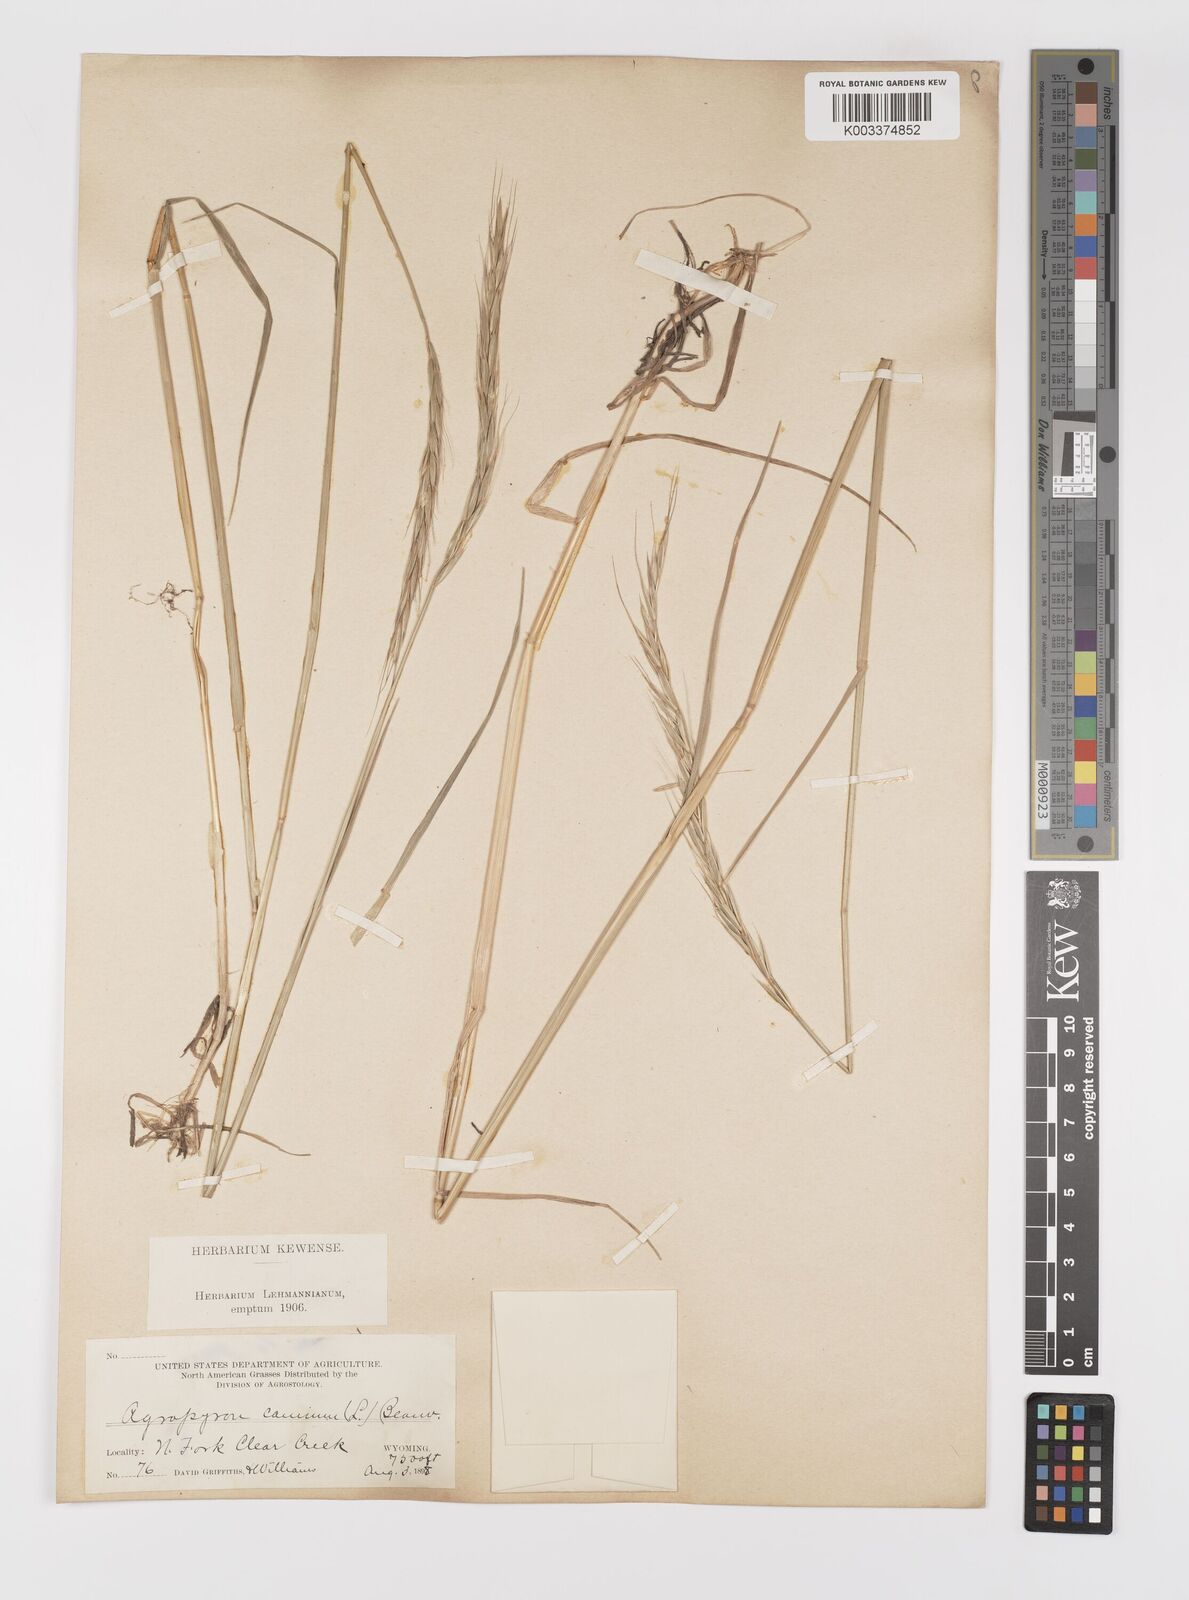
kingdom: Plantae
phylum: Tracheophyta
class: Liliopsida
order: Poales
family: Poaceae
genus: Elymus
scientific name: Elymus violaceus
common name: Arctic wheatgrass
